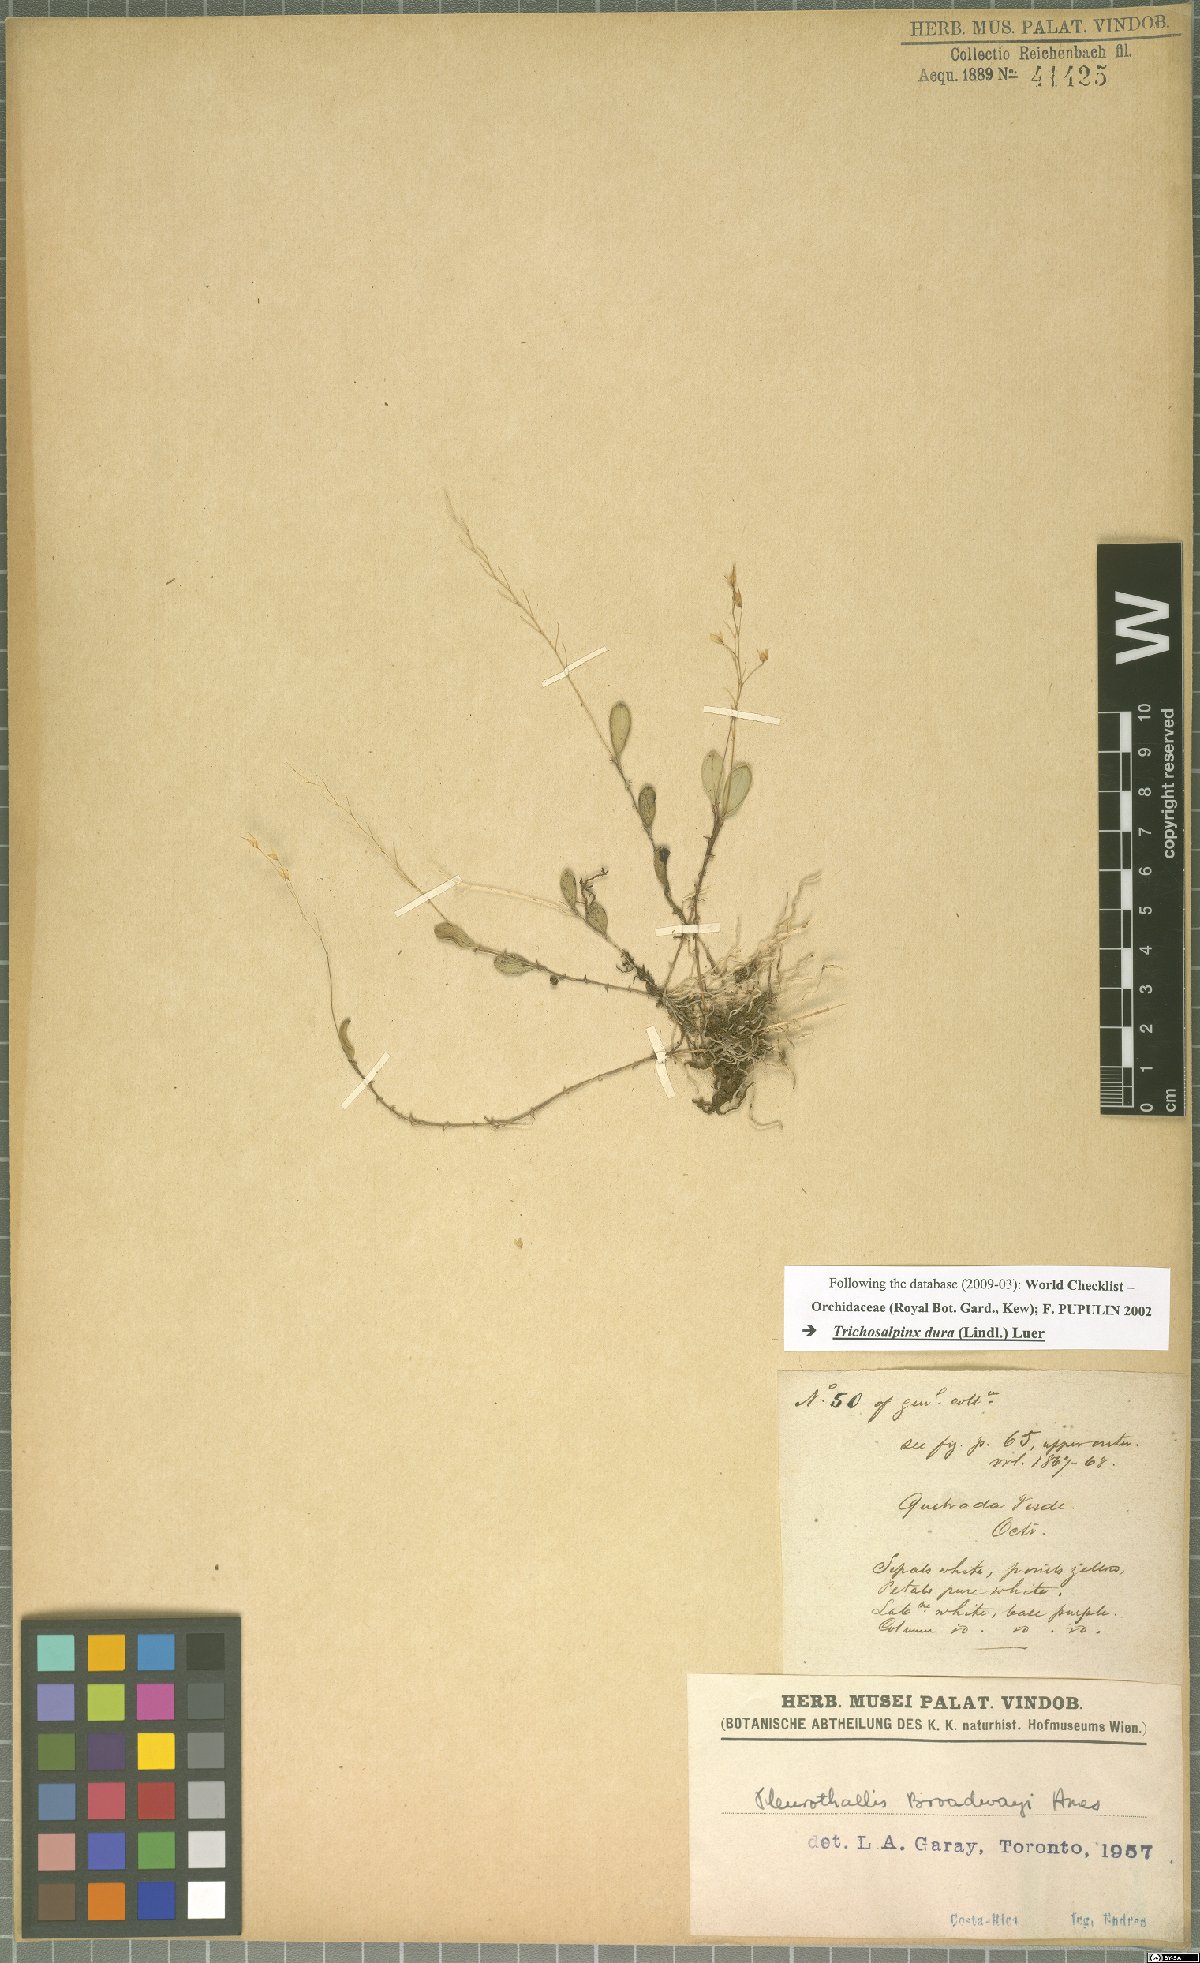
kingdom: Plantae
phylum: Tracheophyta
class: Liliopsida
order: Asparagales
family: Orchidaceae
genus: Trichosalpinx
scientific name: Trichosalpinx dura
